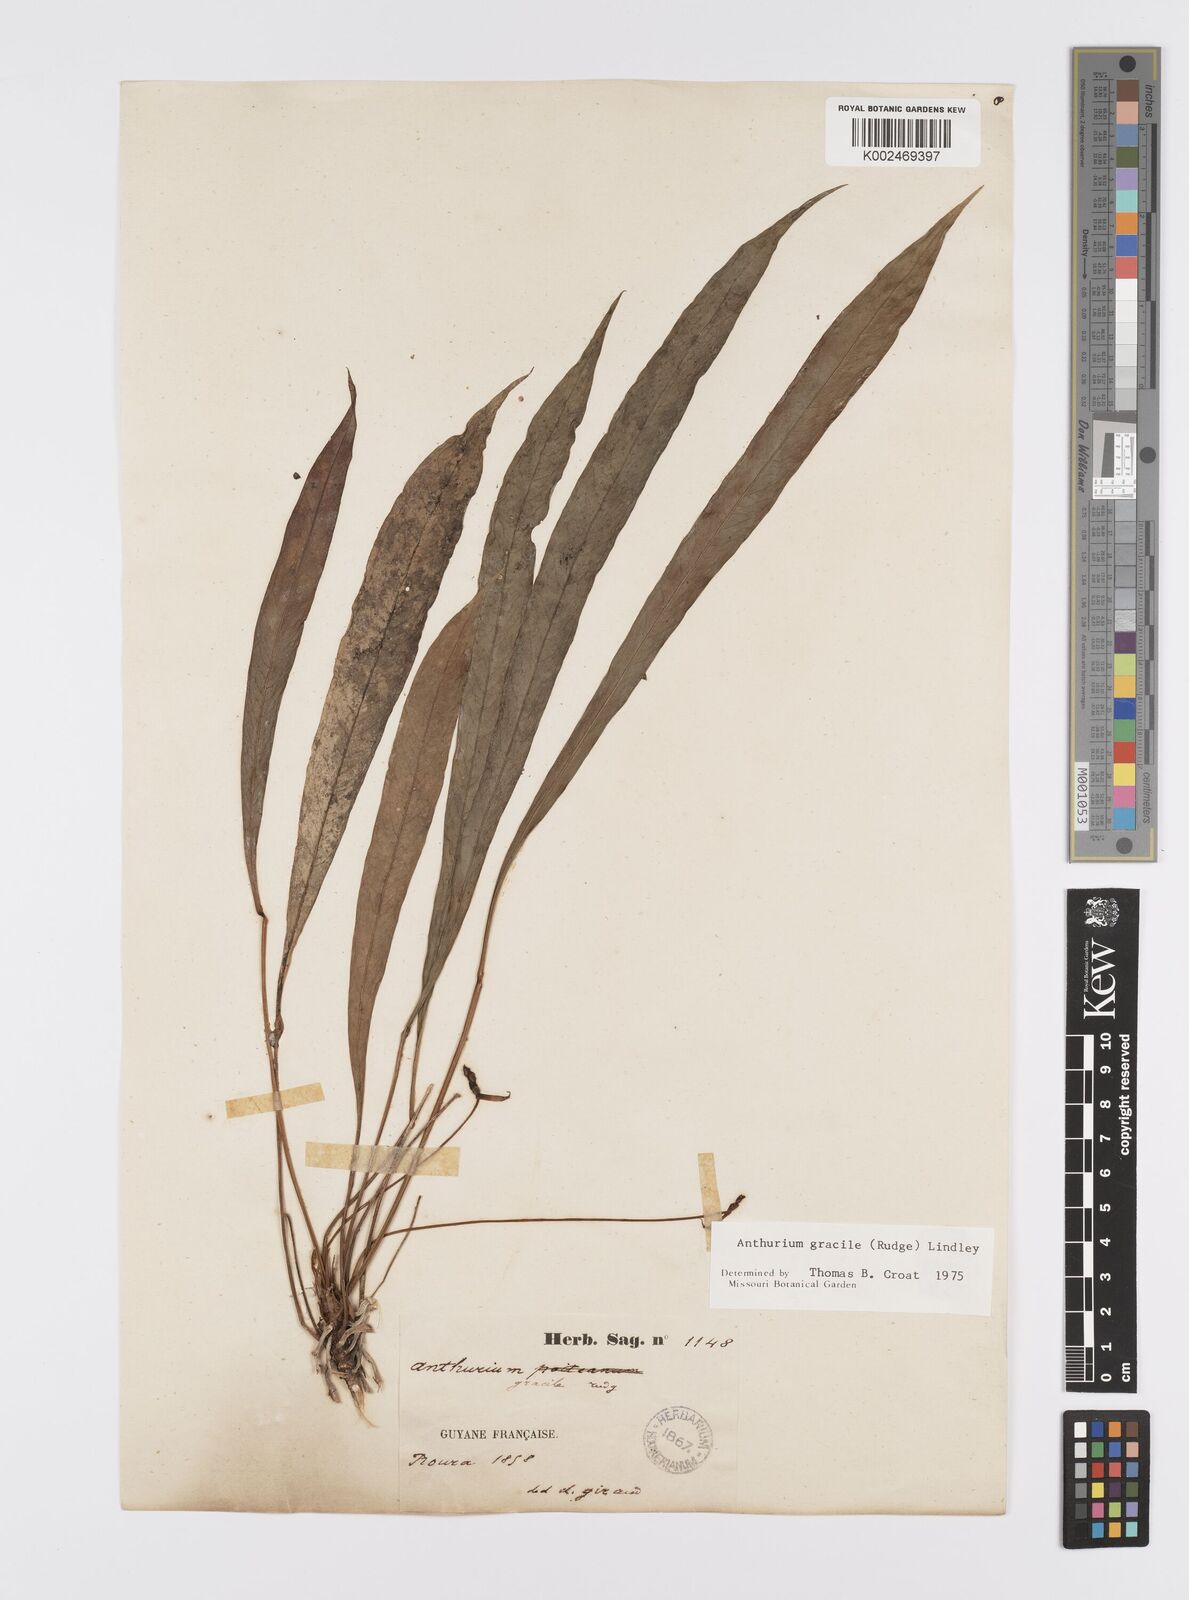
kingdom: Plantae
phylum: Tracheophyta
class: Liliopsida
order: Alismatales
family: Araceae
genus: Anthurium
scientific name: Anthurium gracile
